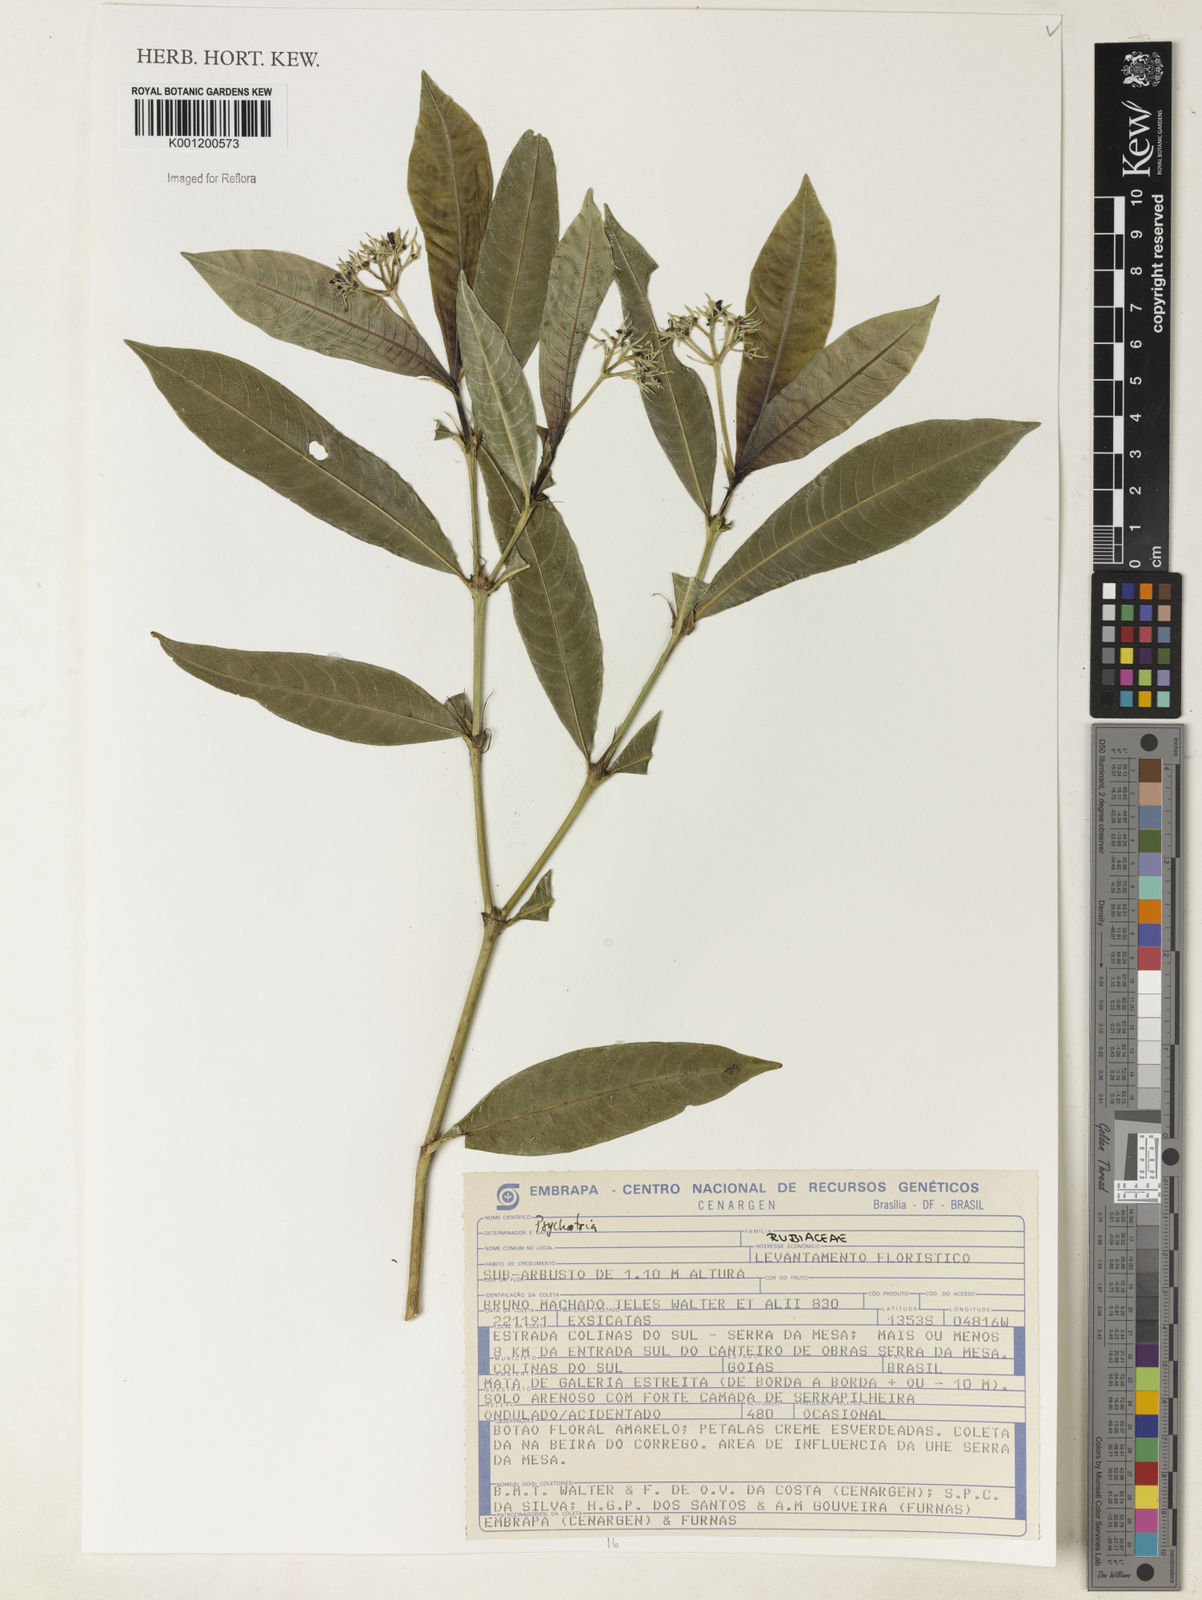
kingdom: Plantae
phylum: Tracheophyta
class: Magnoliopsida
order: Gentianales
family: Rubiaceae
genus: Psychotria
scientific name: Psychotria
